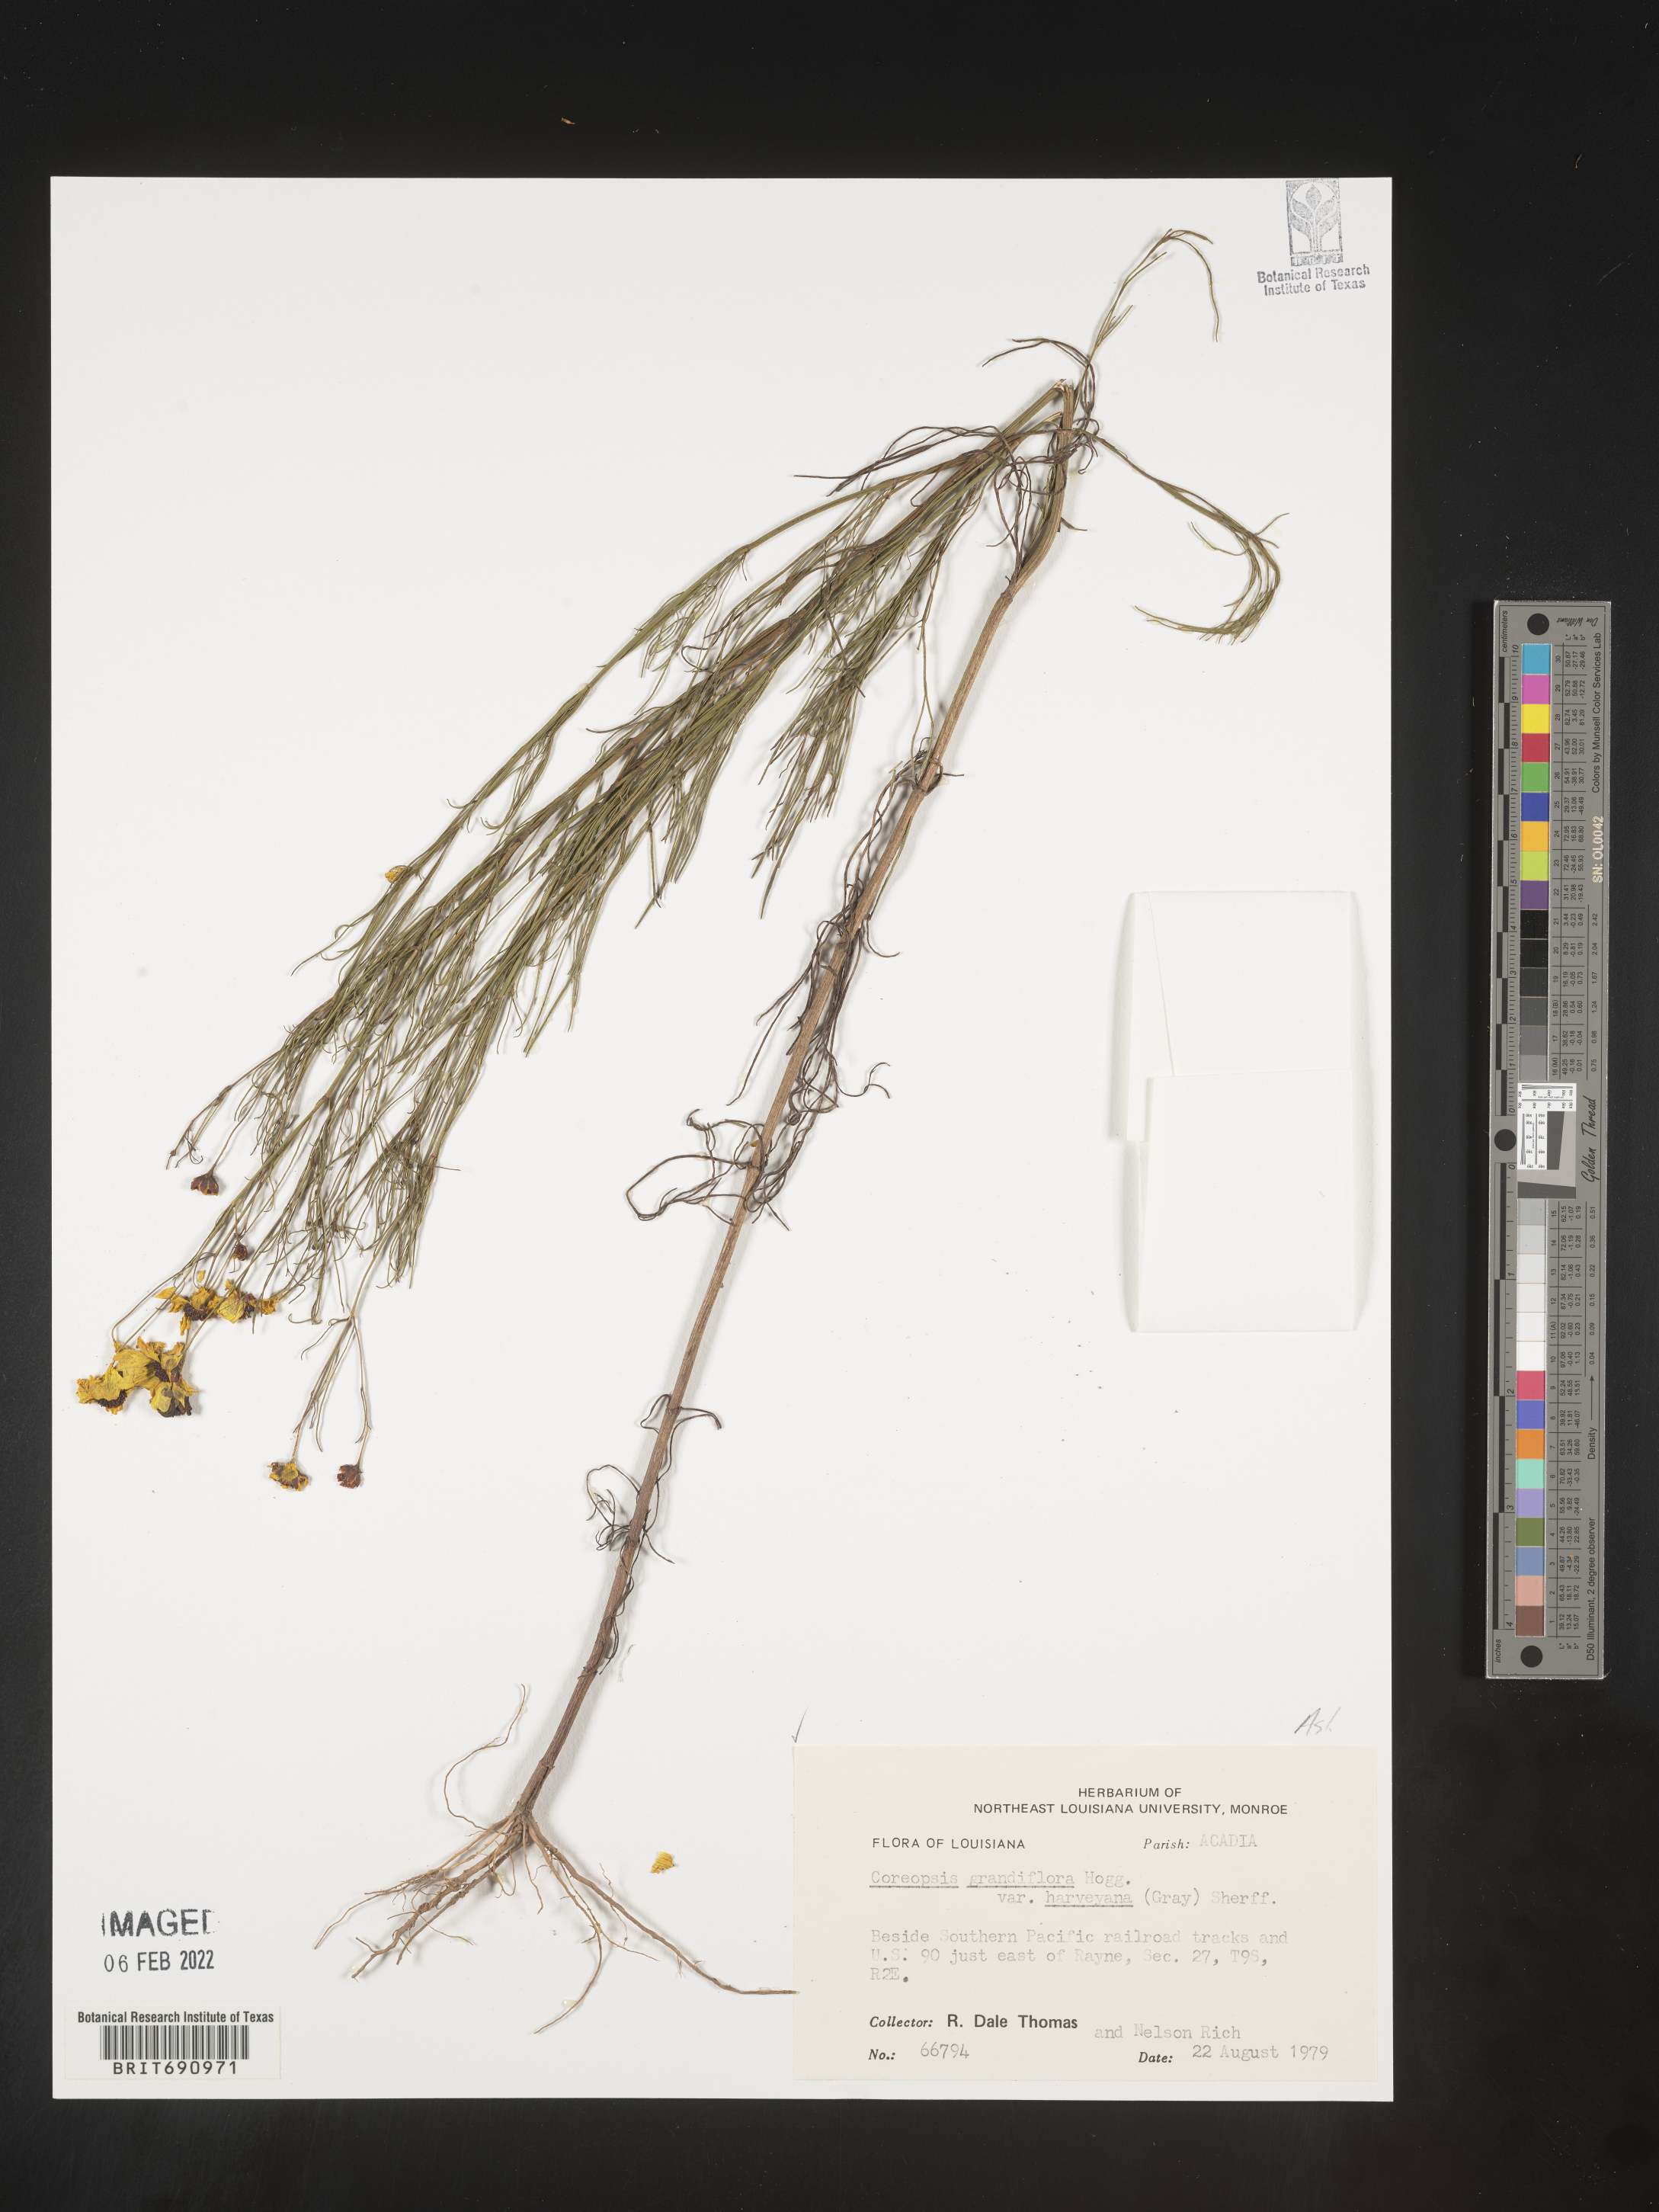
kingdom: Plantae
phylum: Tracheophyta
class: Magnoliopsida
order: Asterales
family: Asteraceae
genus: Coreopsis
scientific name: Coreopsis grandiflora
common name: Large-flowered tickseed
